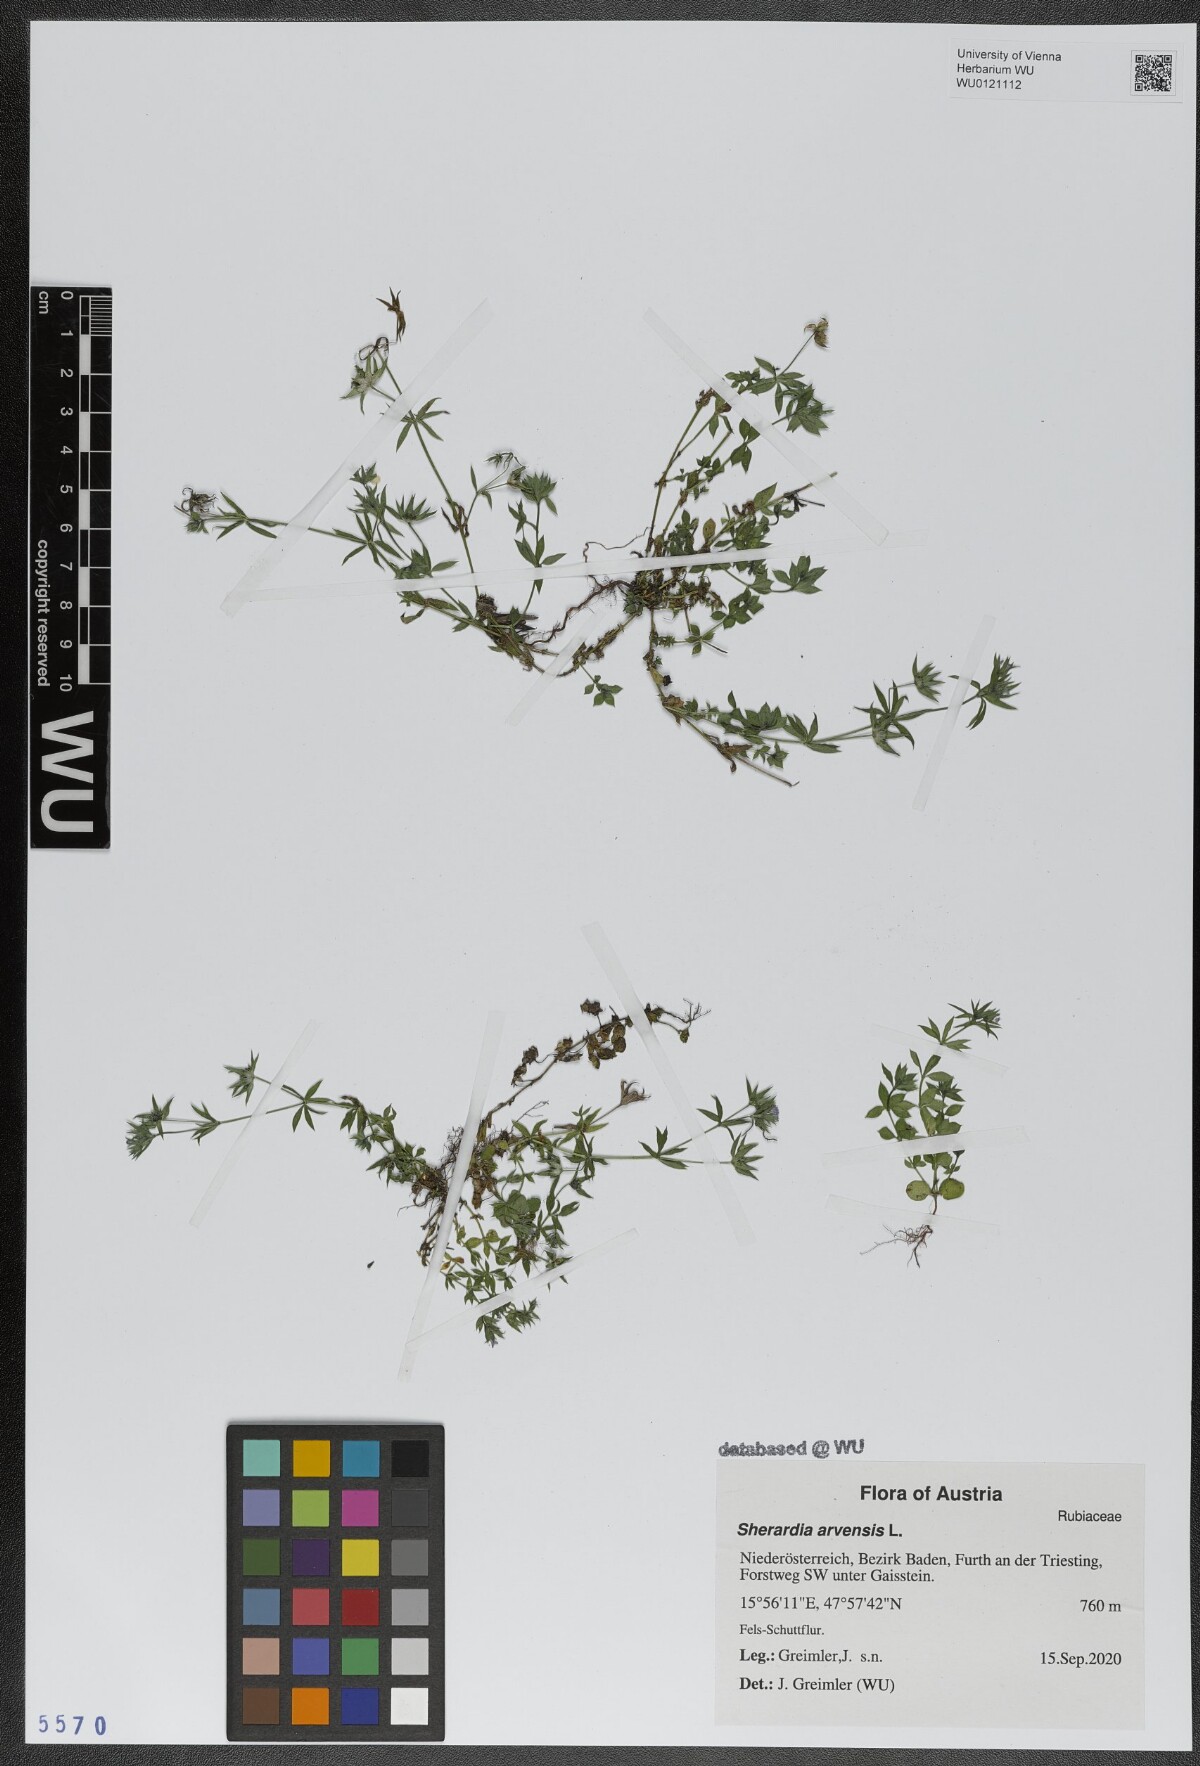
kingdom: Plantae
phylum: Tracheophyta
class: Magnoliopsida
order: Gentianales
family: Rubiaceae
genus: Sherardia
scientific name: Sherardia arvensis
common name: Field madder
